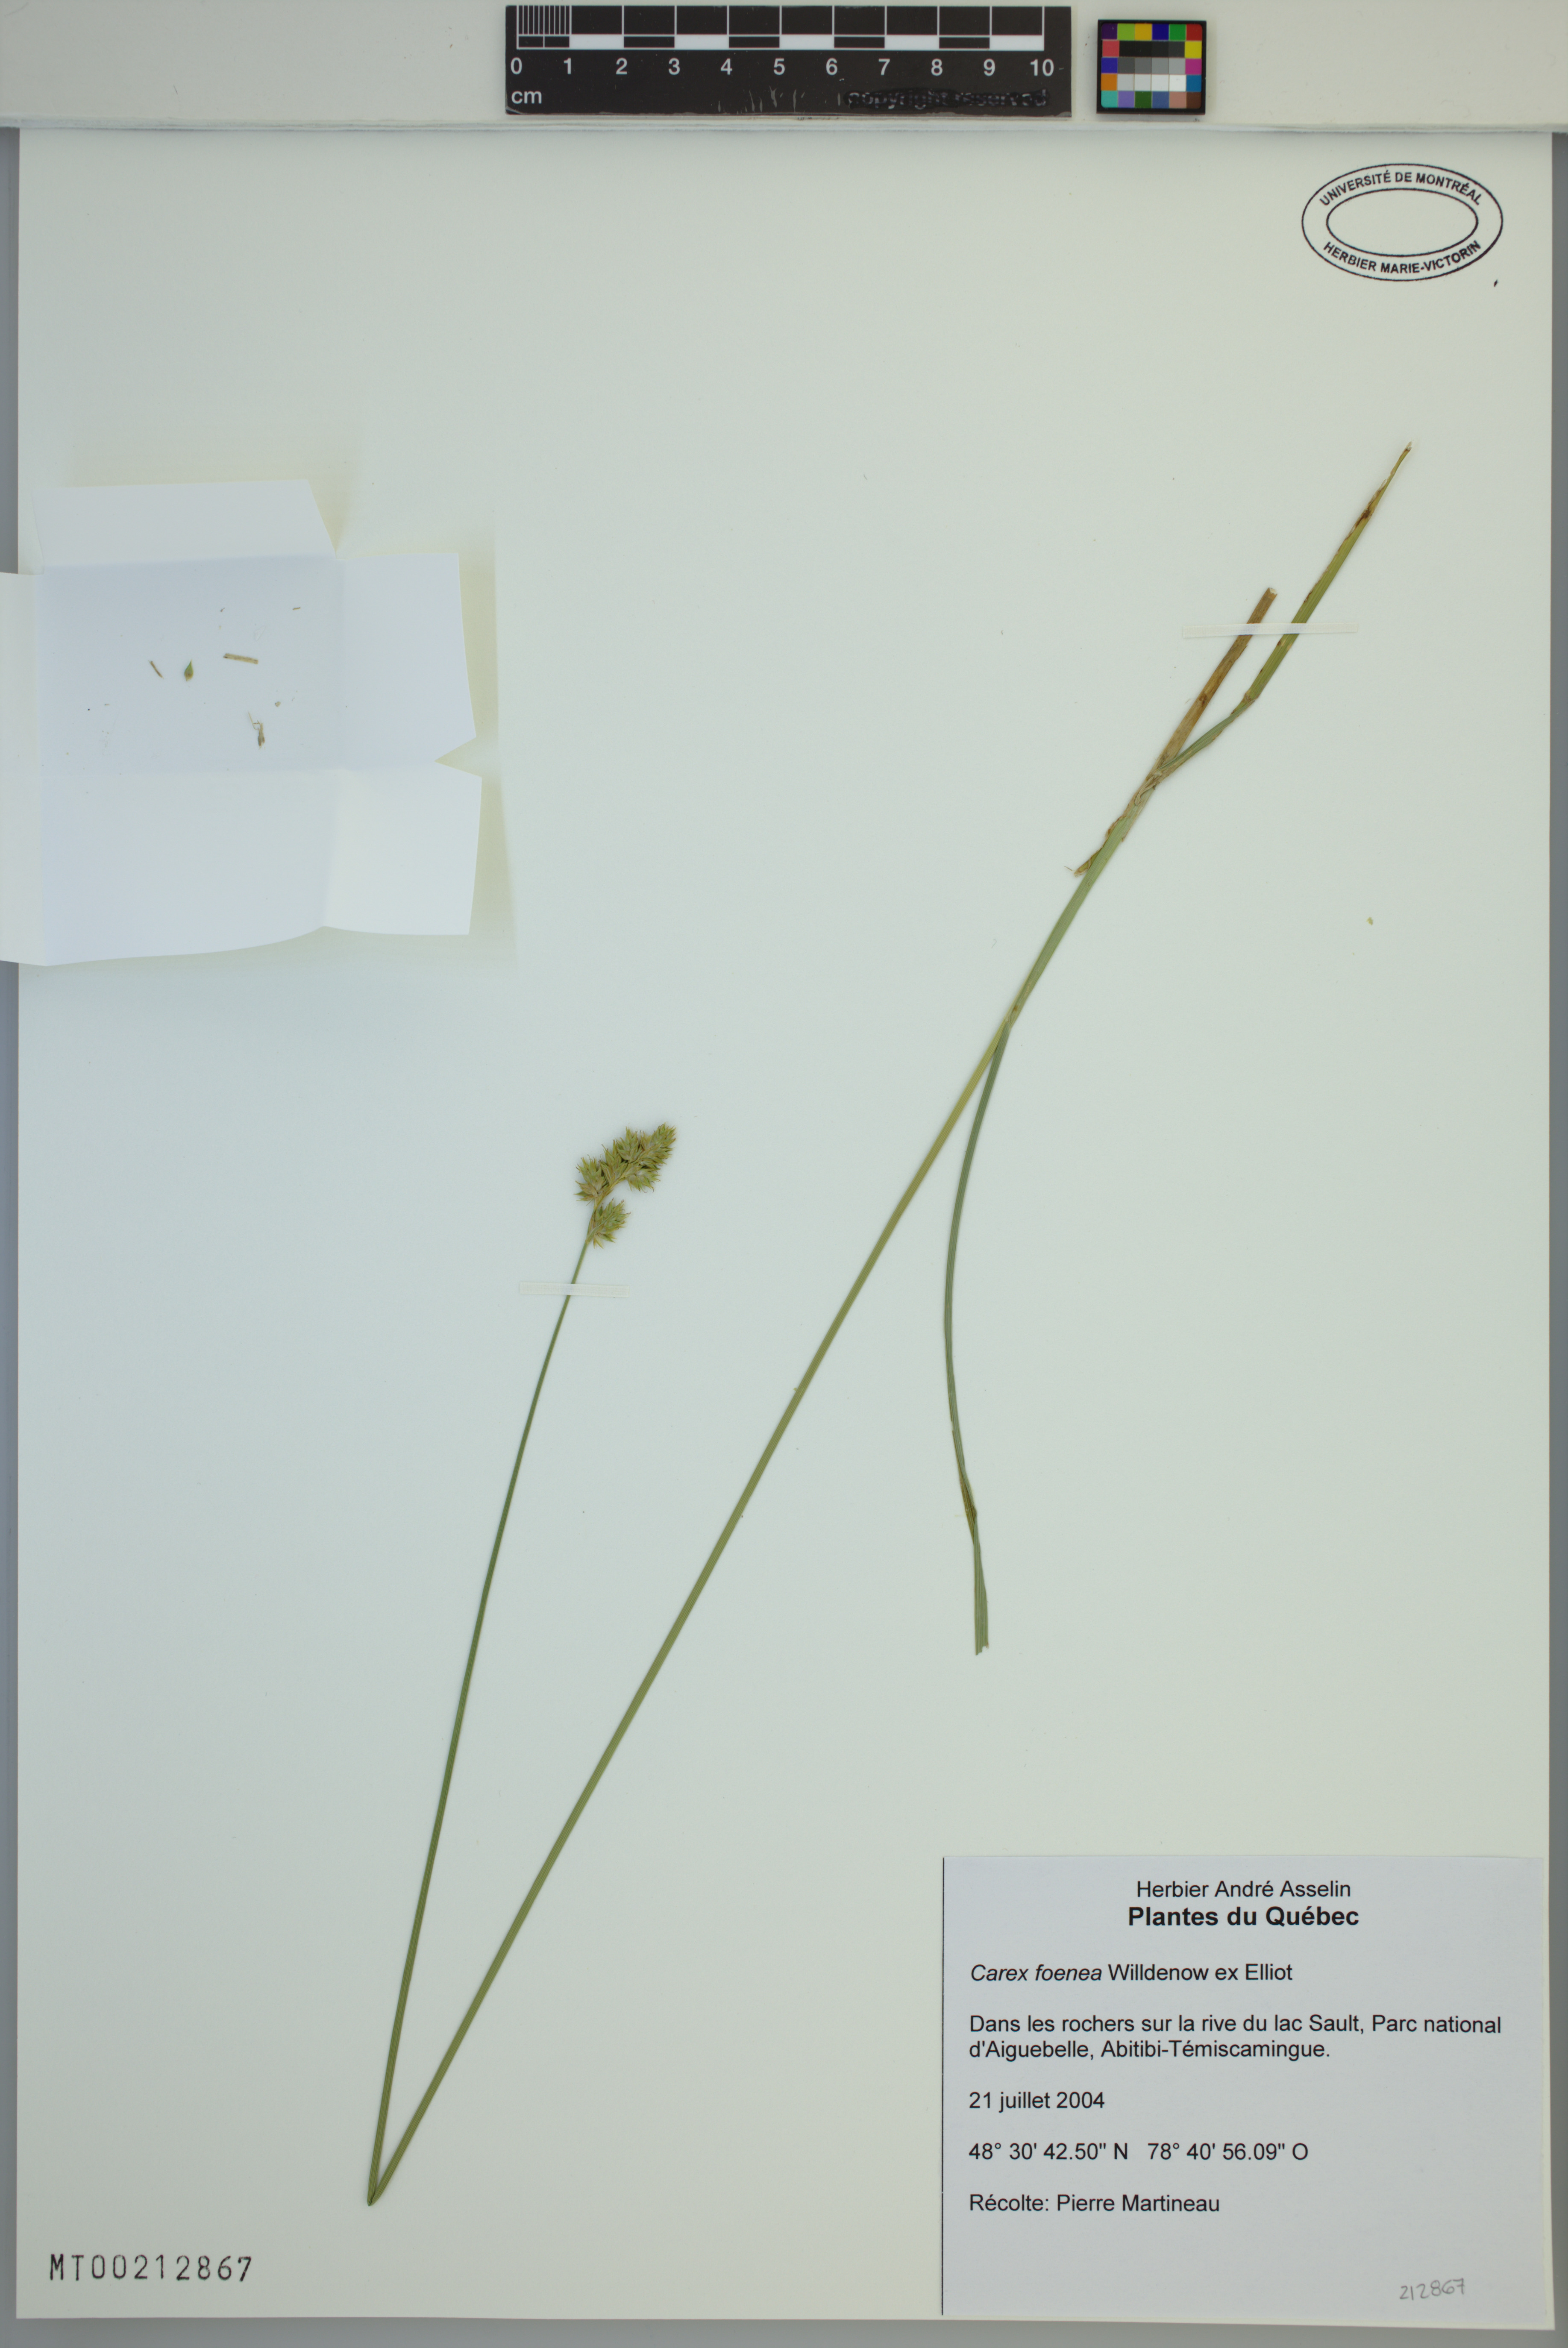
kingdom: Plantae
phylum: Tracheophyta
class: Liliopsida
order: Poales
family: Cyperaceae
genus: Carex
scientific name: Carex foenea
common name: Bronze sedge
